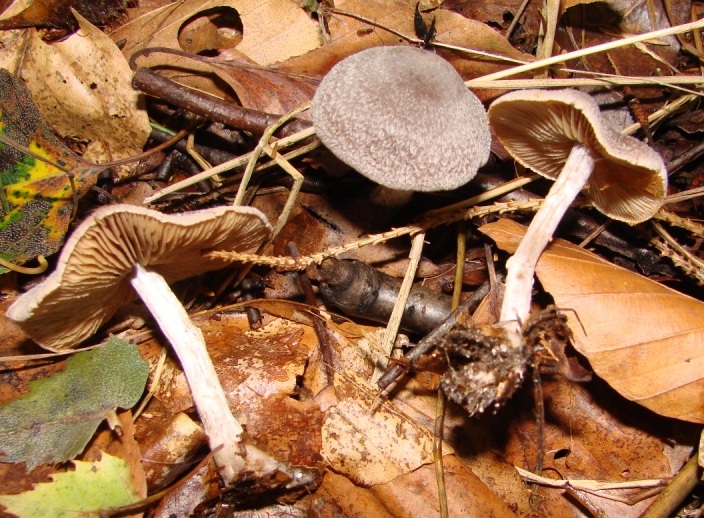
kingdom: Fungi
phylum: Basidiomycota
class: Agaricomycetes
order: Agaricales
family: Cortinariaceae
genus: Cortinarius
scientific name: Cortinarius hemitrichus
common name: hvidfnugget slørhat
